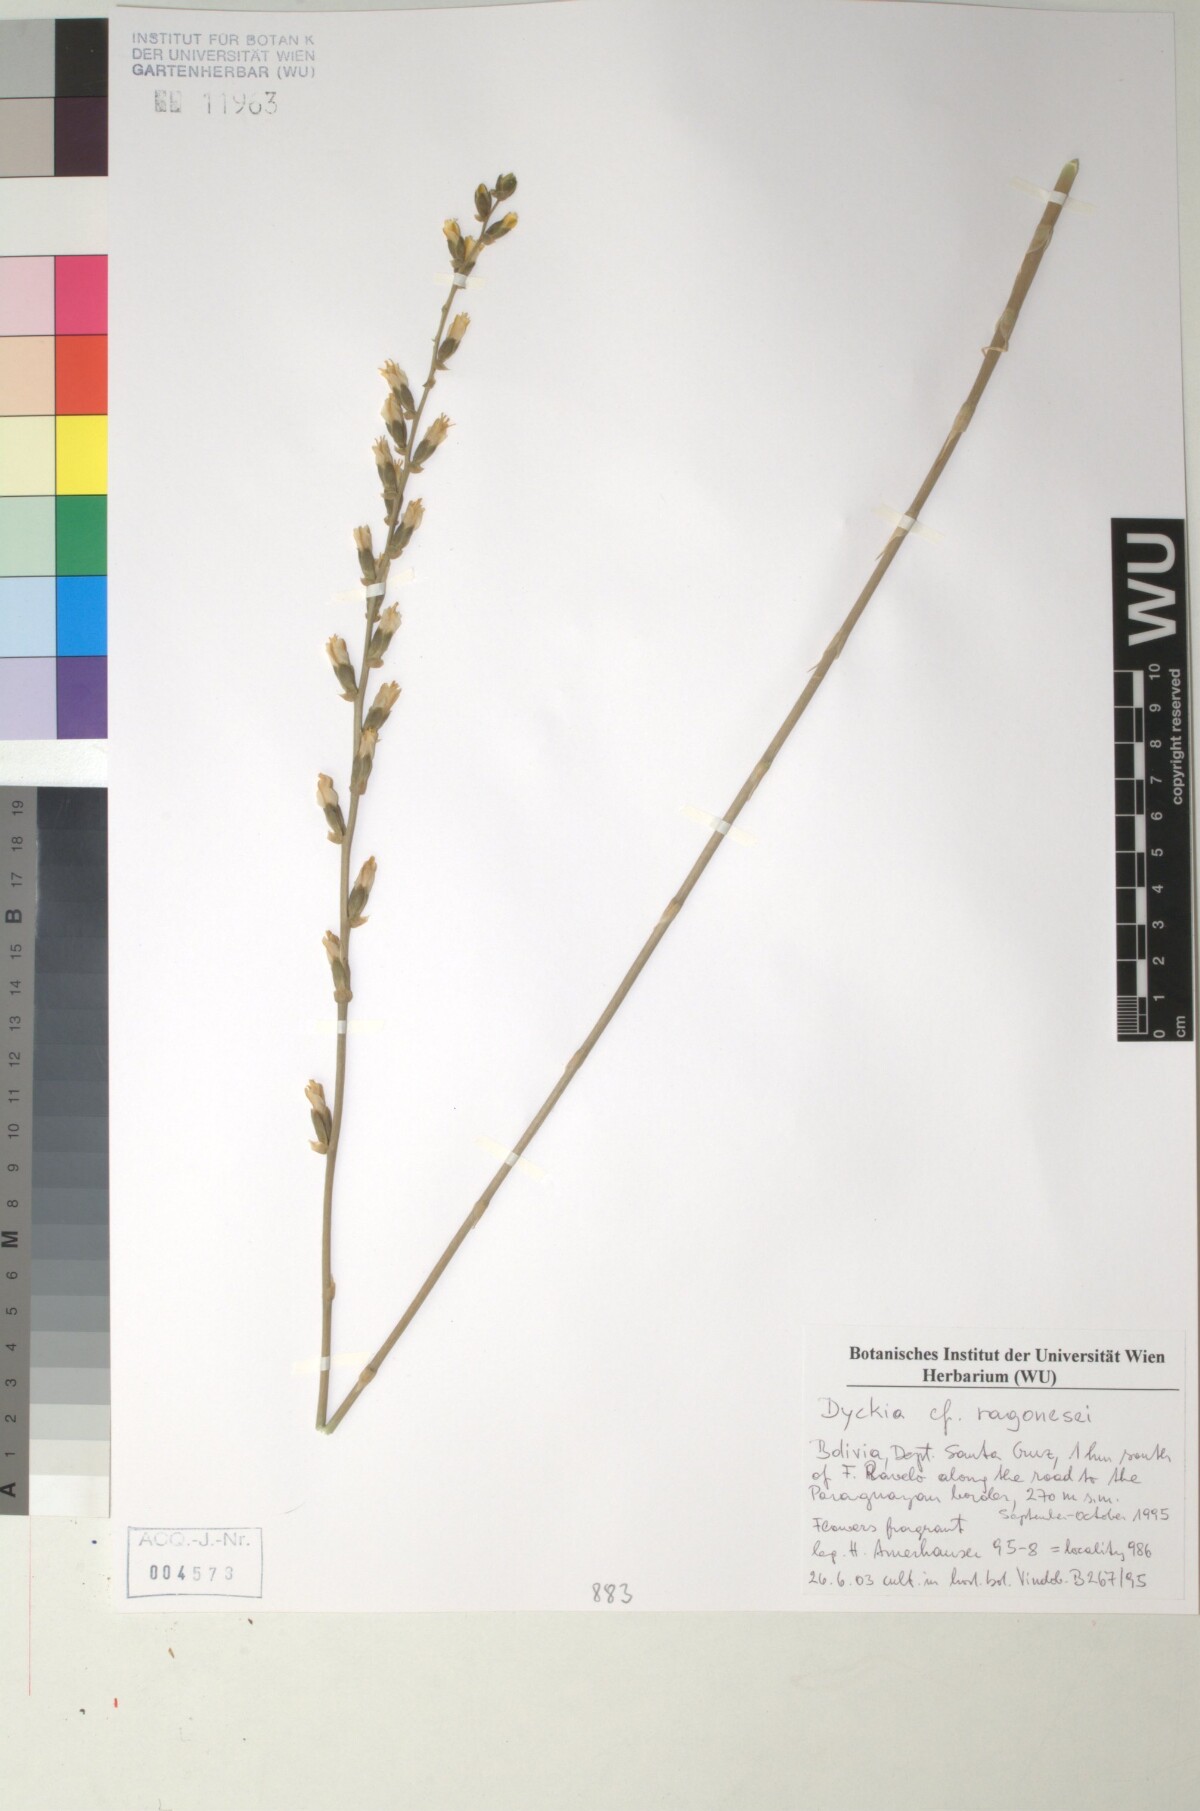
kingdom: Plantae
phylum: Tracheophyta
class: Liliopsida
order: Poales
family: Bromeliaceae
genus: Dyckia
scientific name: Dyckia ragonesei
